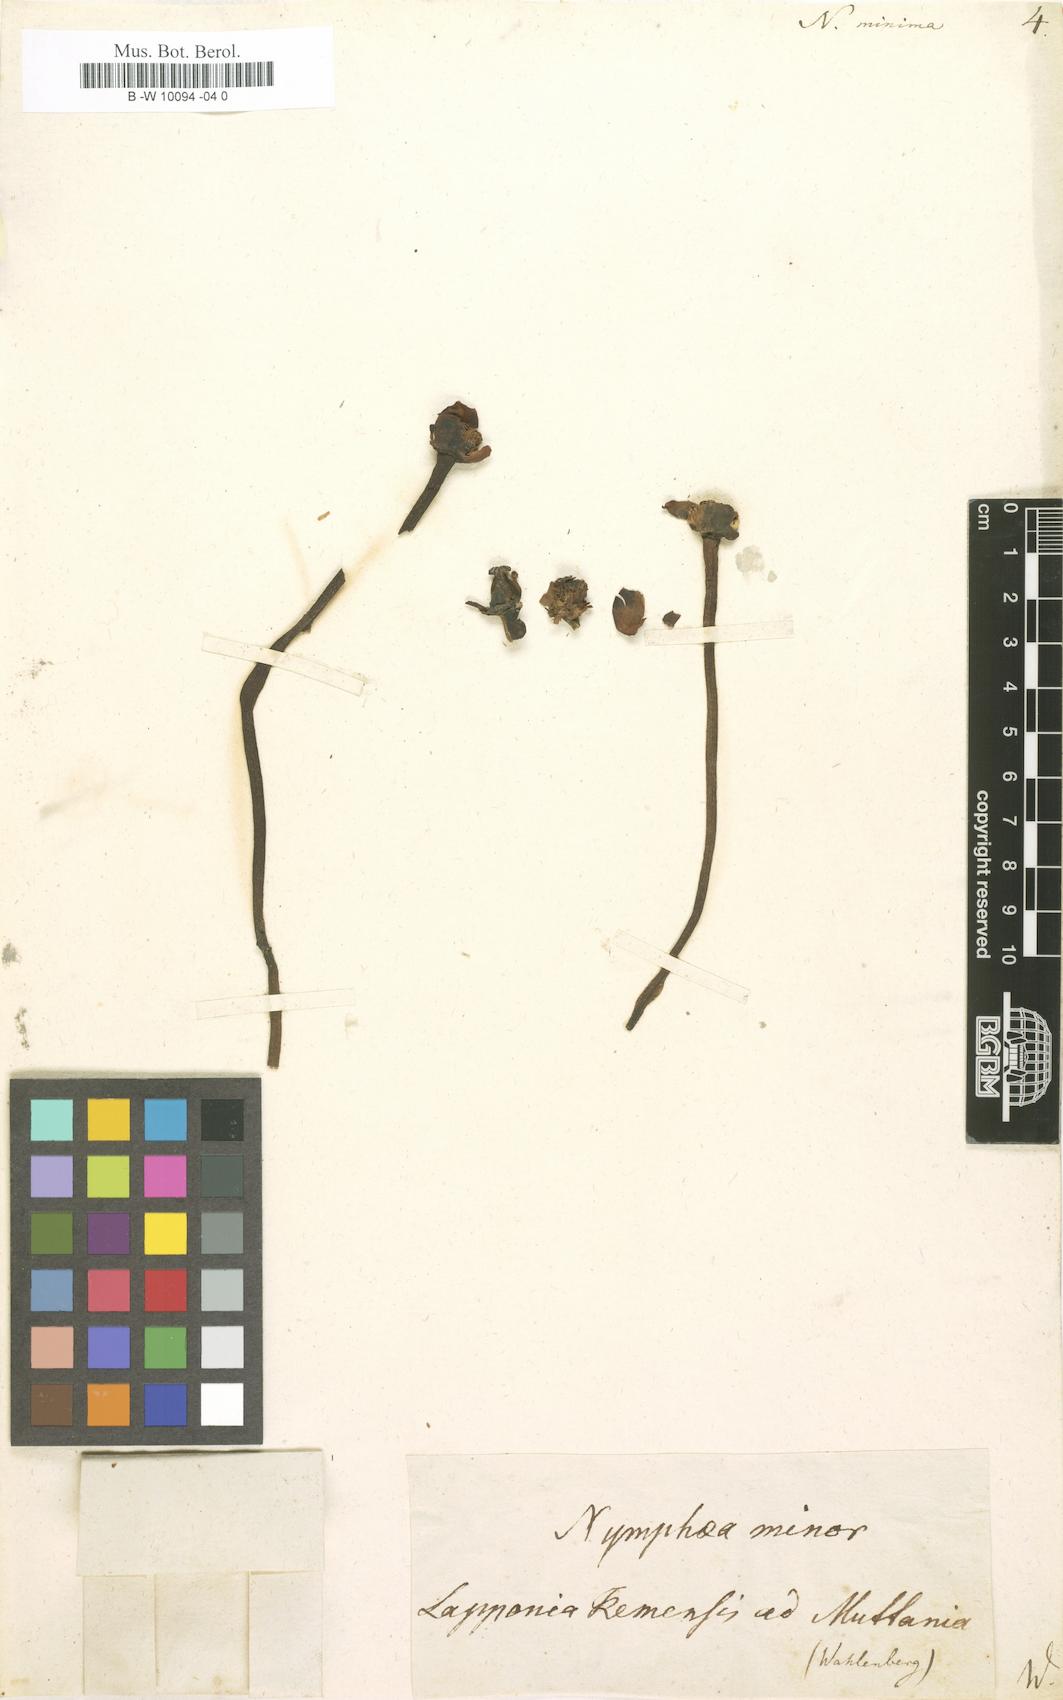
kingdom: Plantae
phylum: Tracheophyta
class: Magnoliopsida
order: Nymphaeales
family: Nymphaeaceae
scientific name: Nymphaeaceae
